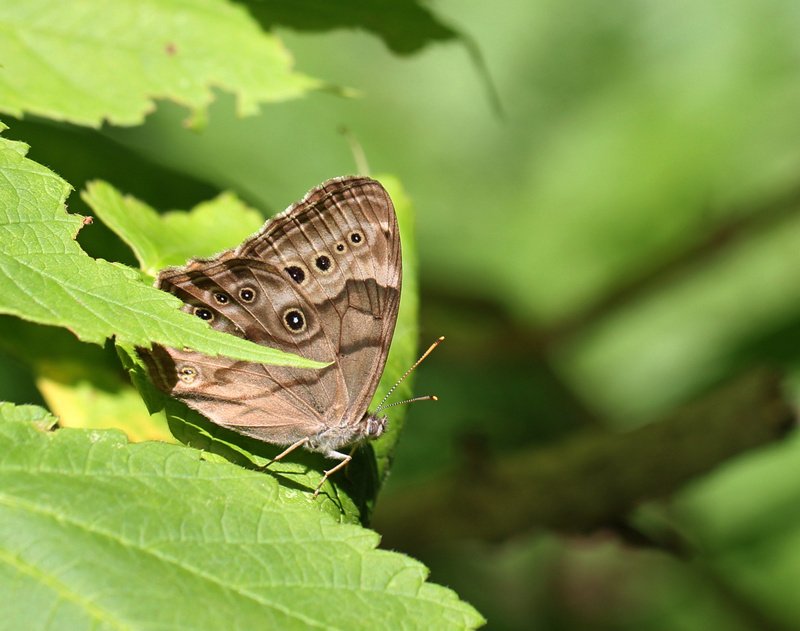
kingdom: Animalia
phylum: Arthropoda
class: Insecta
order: Lepidoptera
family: Nymphalidae
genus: Lethe
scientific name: Lethe anthedon
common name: Northern Pearly-Eye
